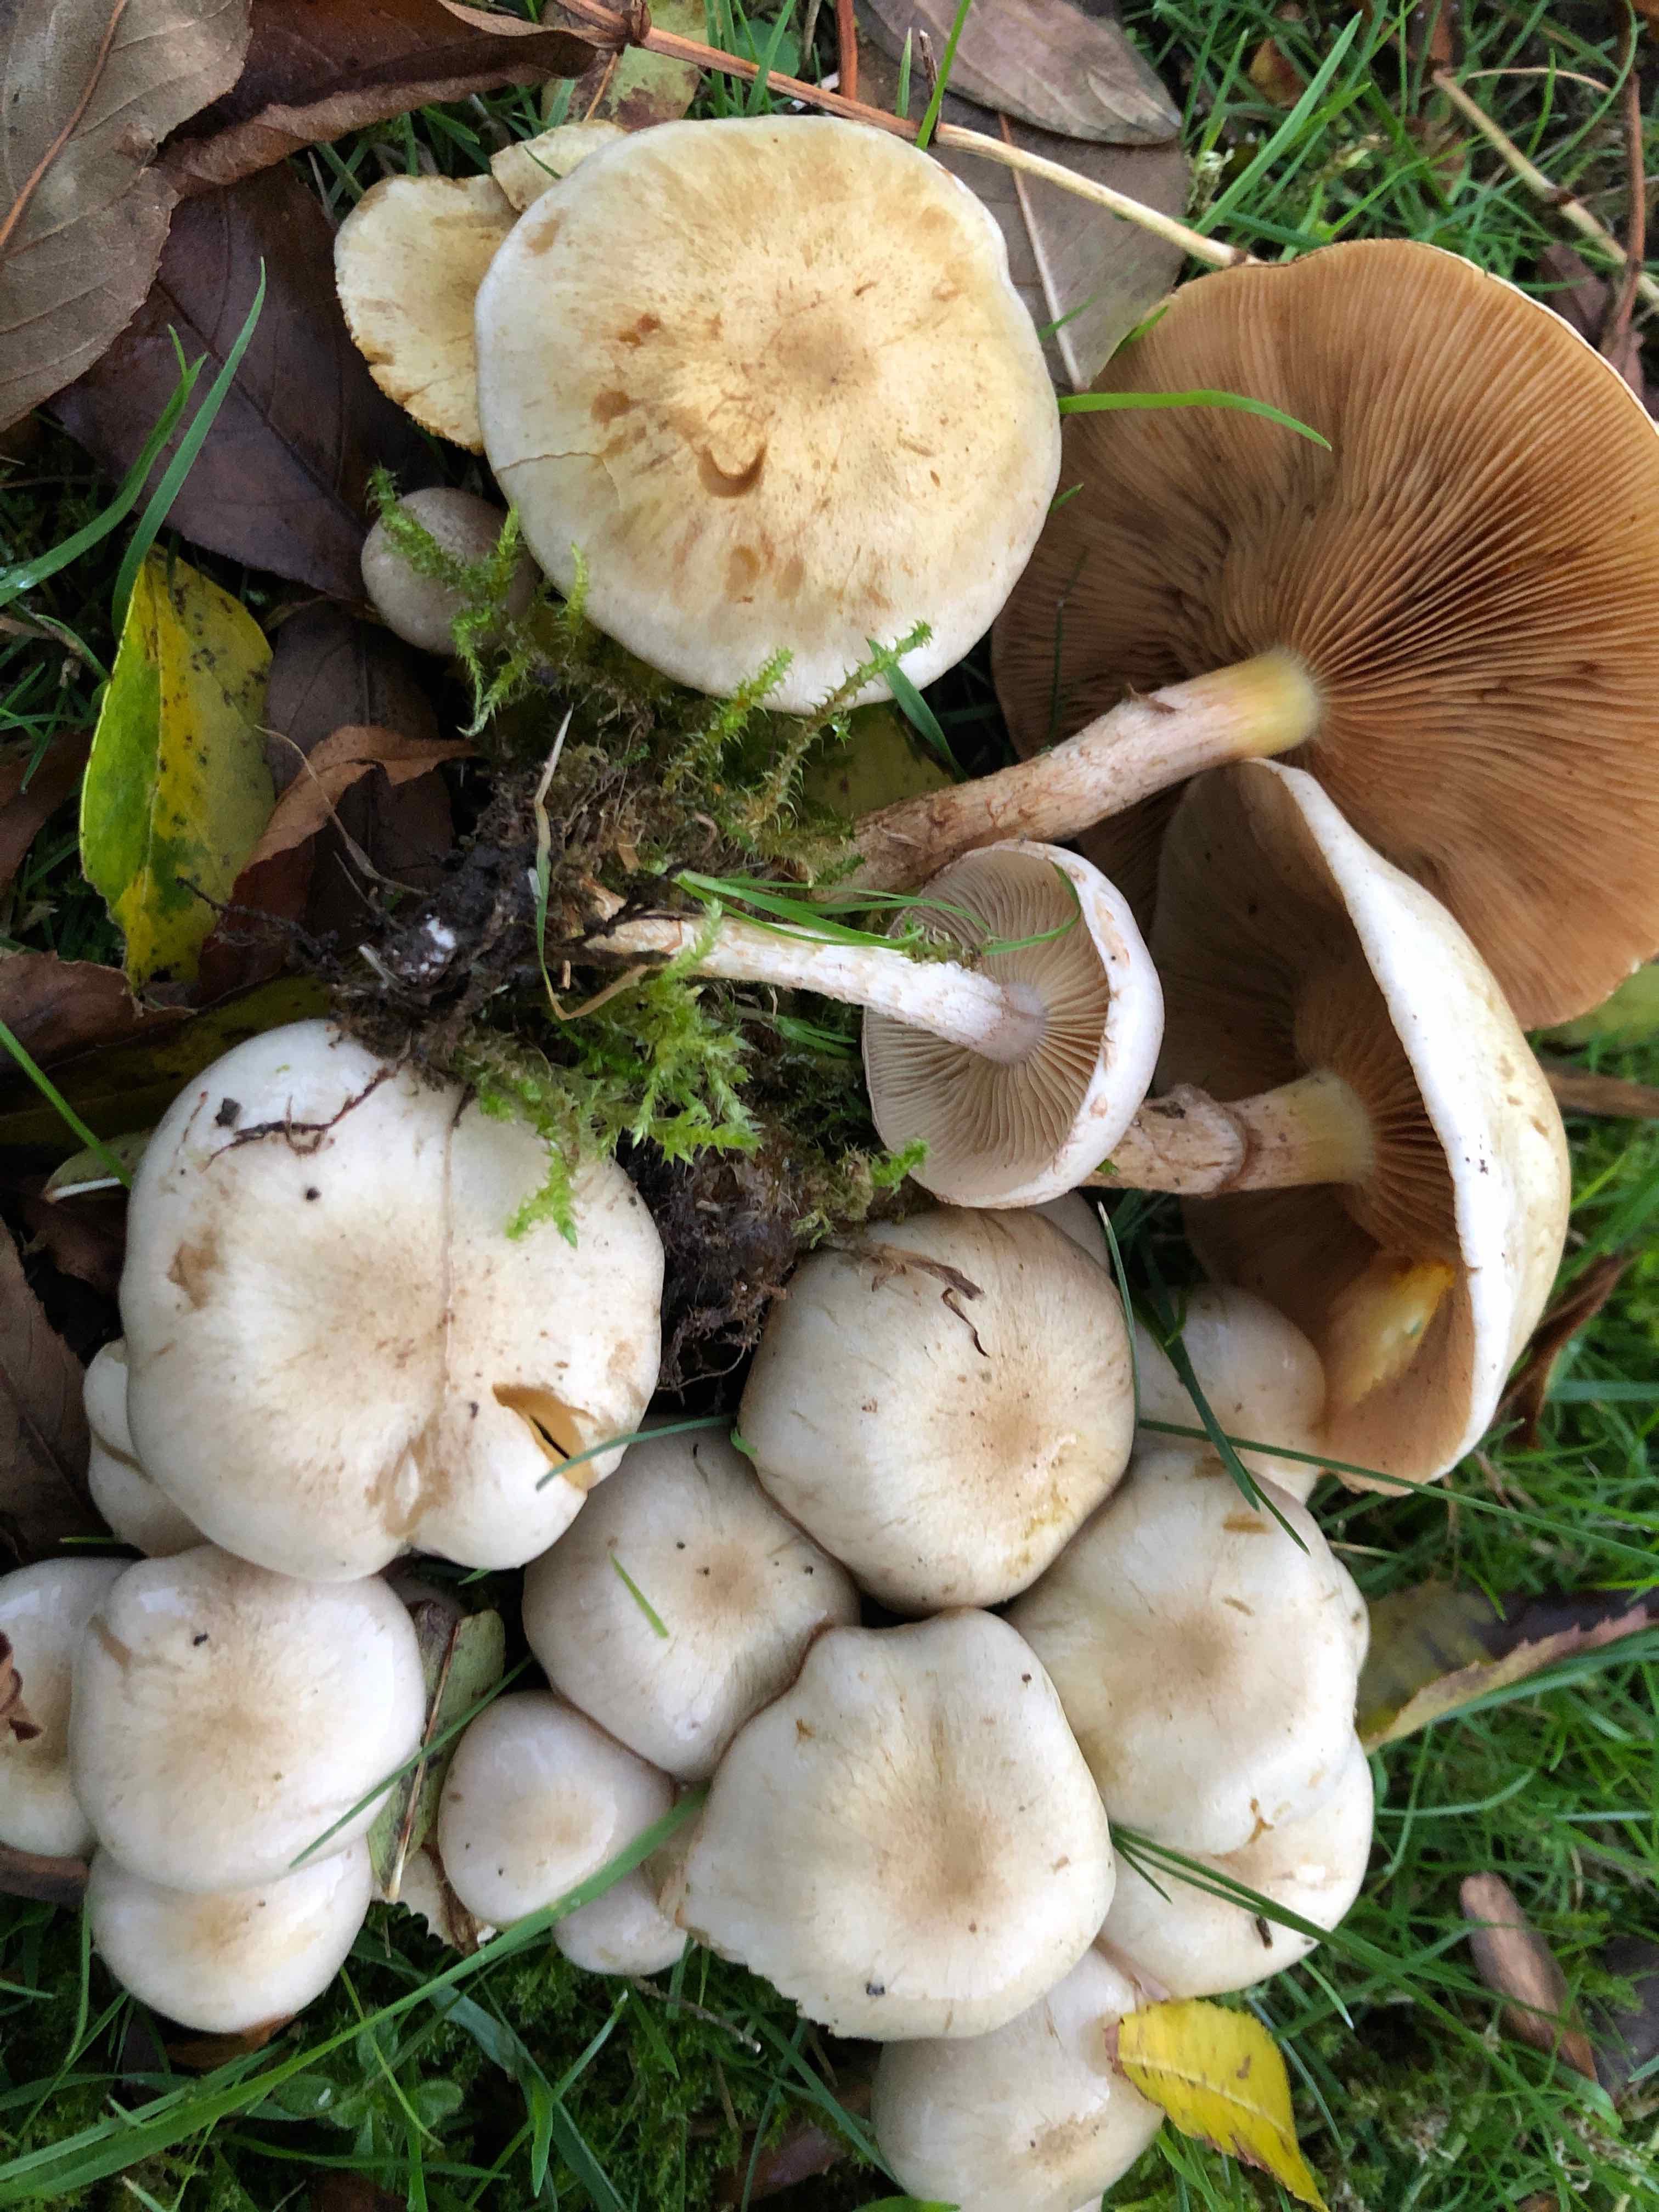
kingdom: Fungi
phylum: Basidiomycota
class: Agaricomycetes
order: Agaricales
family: Strophariaceae
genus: Pholiota
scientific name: Pholiota gummosa
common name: grøngul skælhat
